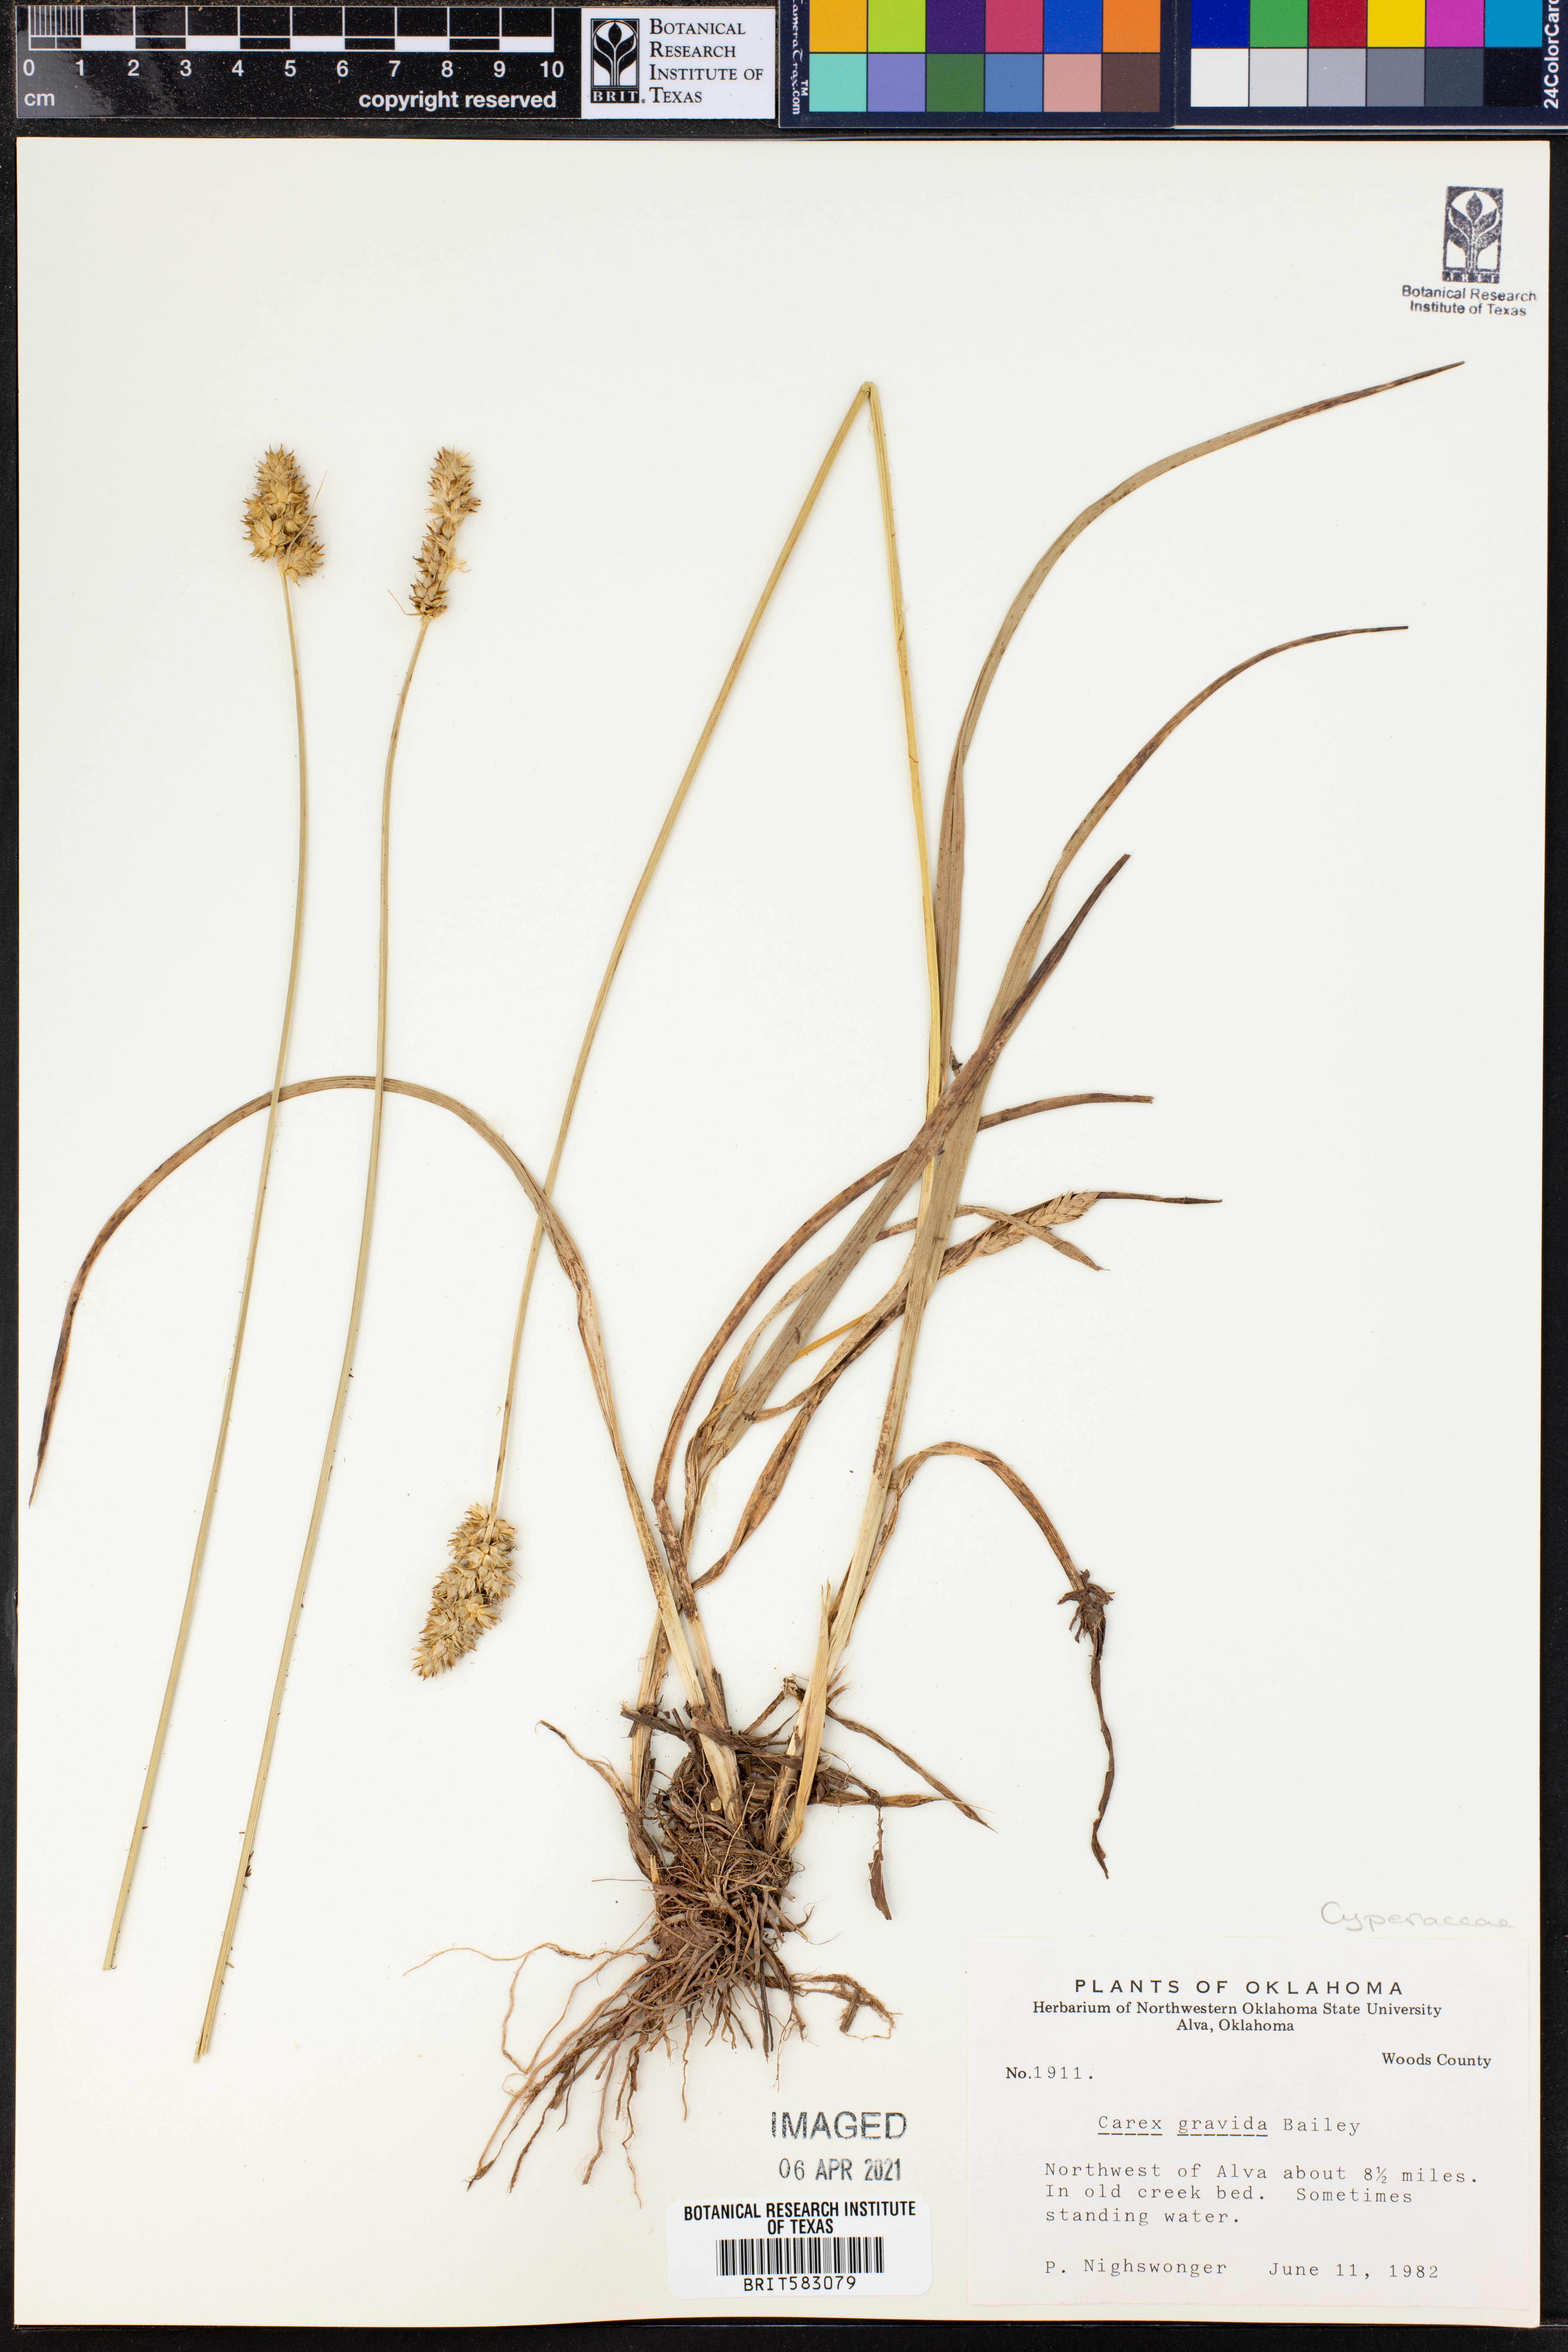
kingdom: Plantae
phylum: Tracheophyta
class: Liliopsida
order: Poales
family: Cyperaceae
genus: Carex
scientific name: Carex gravida
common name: Heavy sedge
